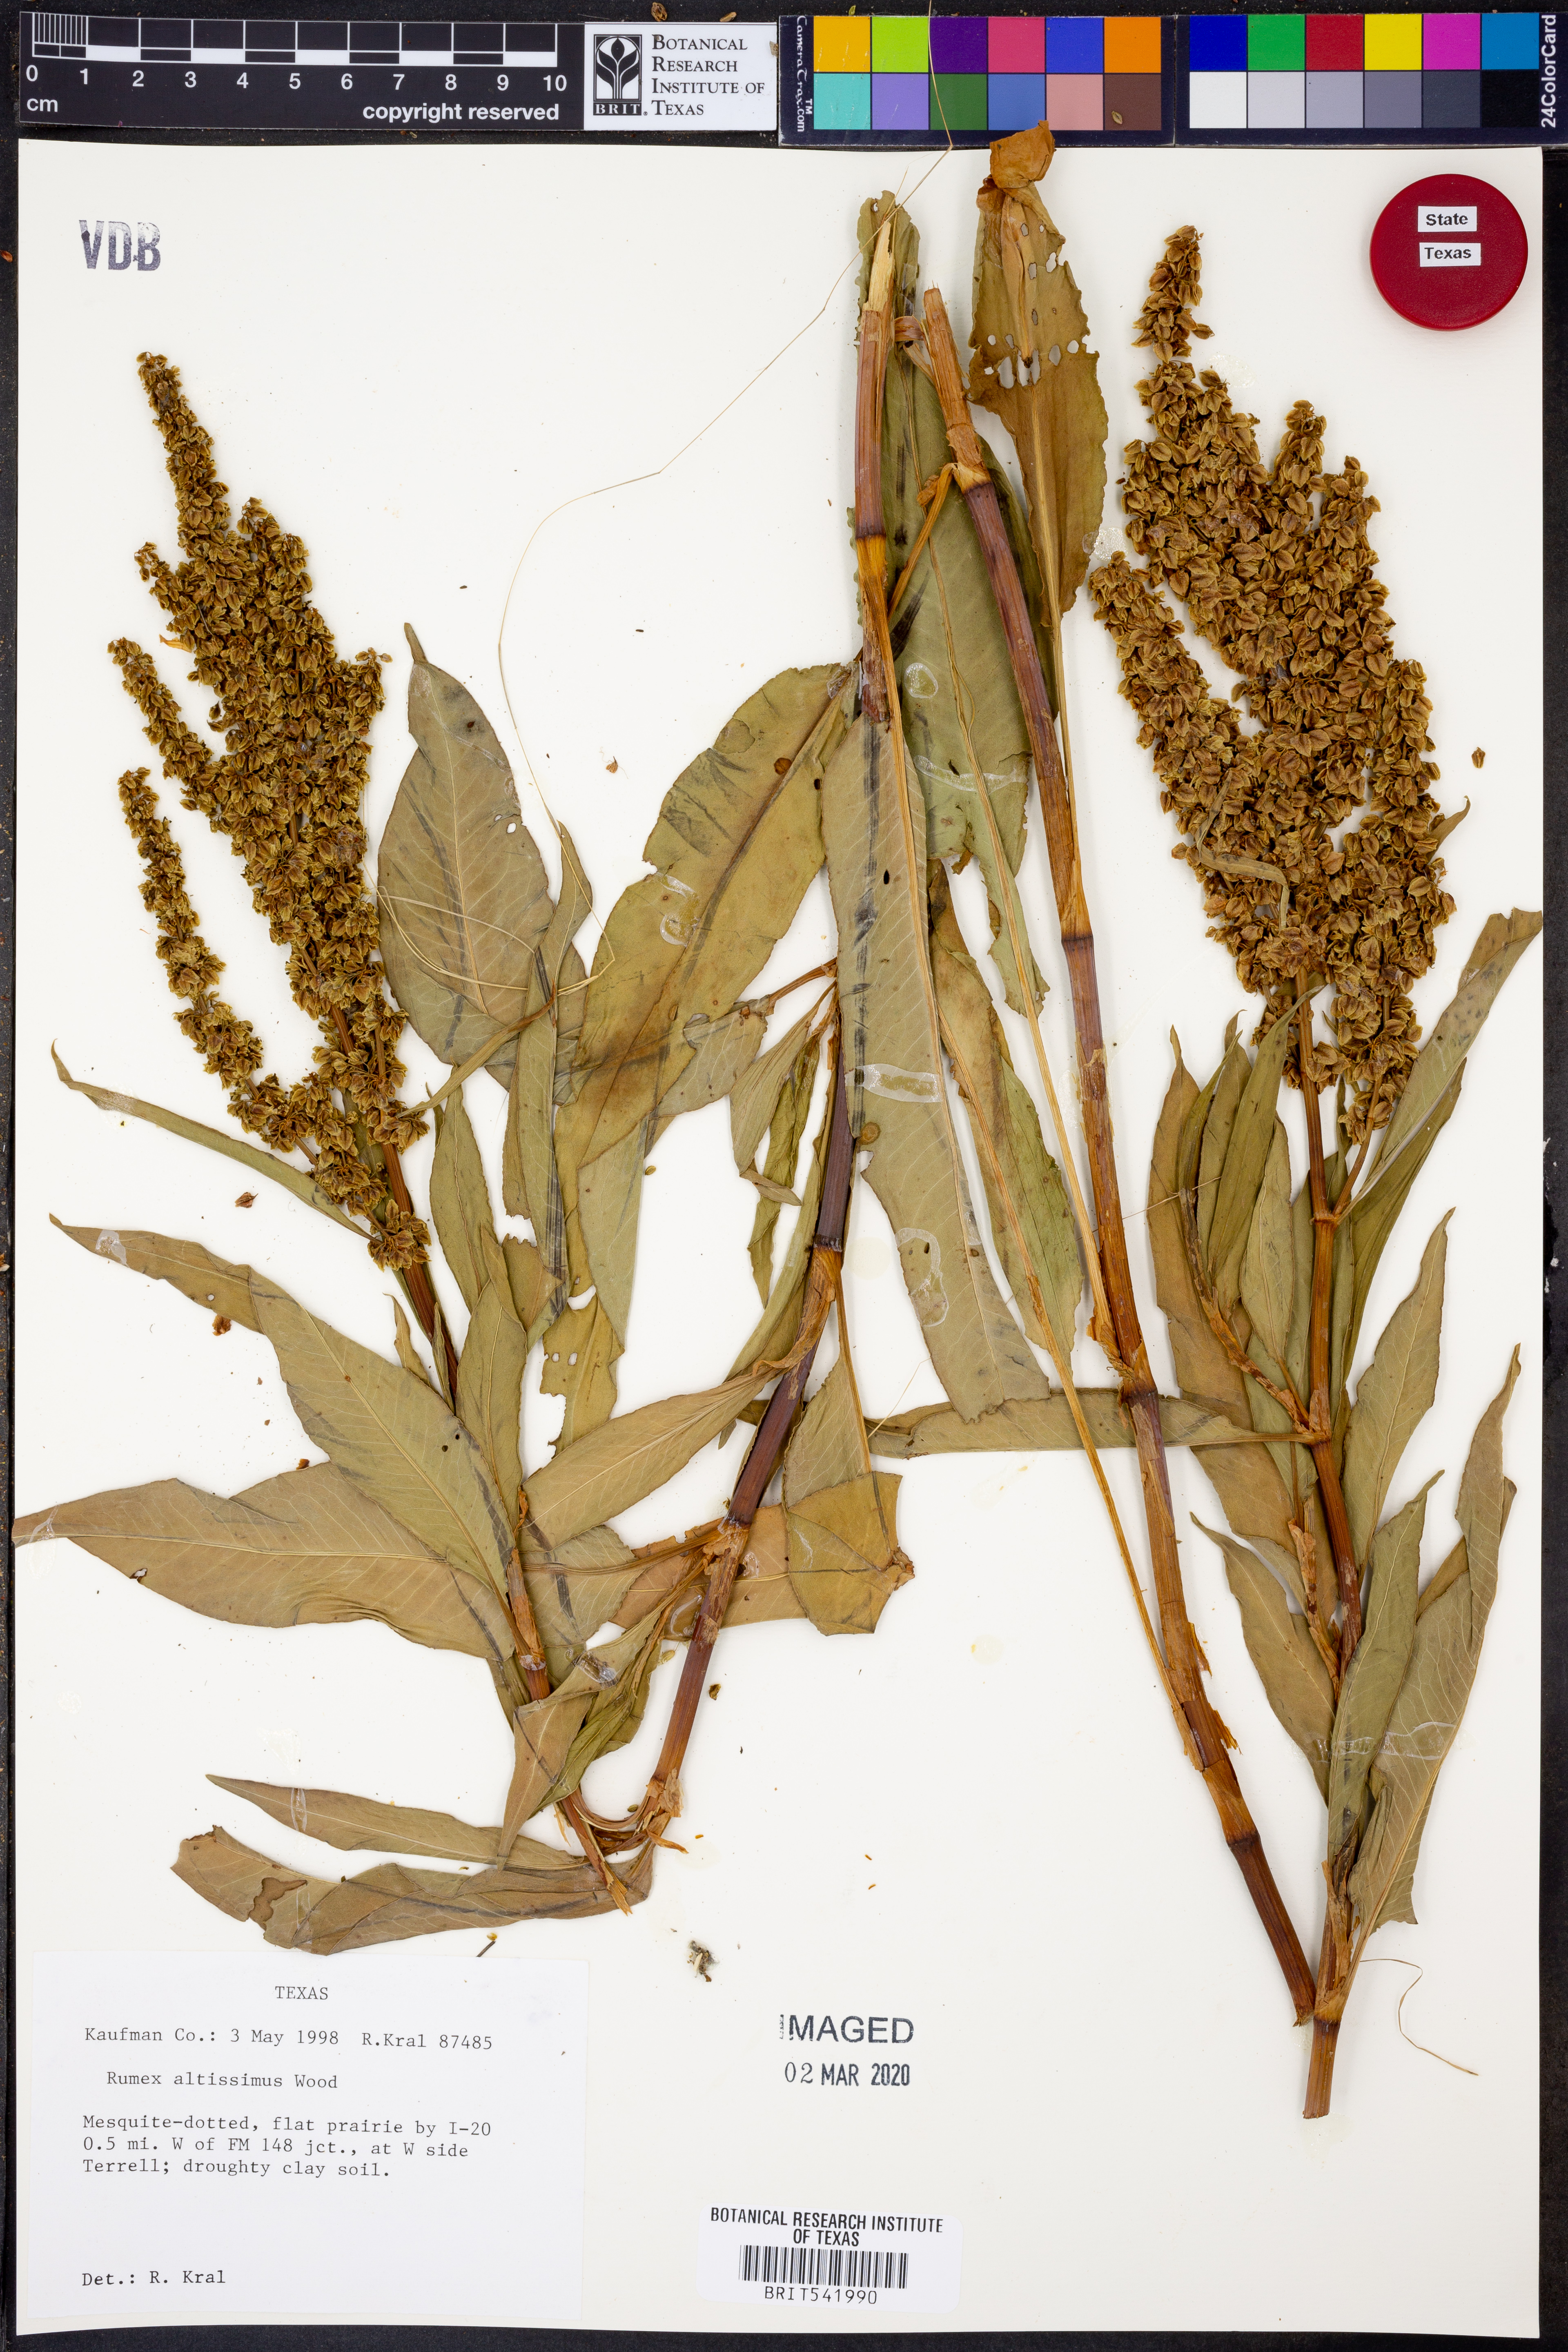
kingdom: Plantae
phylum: Tracheophyta
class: Magnoliopsida
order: Caryophyllales
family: Polygonaceae
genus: Rumex
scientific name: Rumex altissimus
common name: Smooth dock
